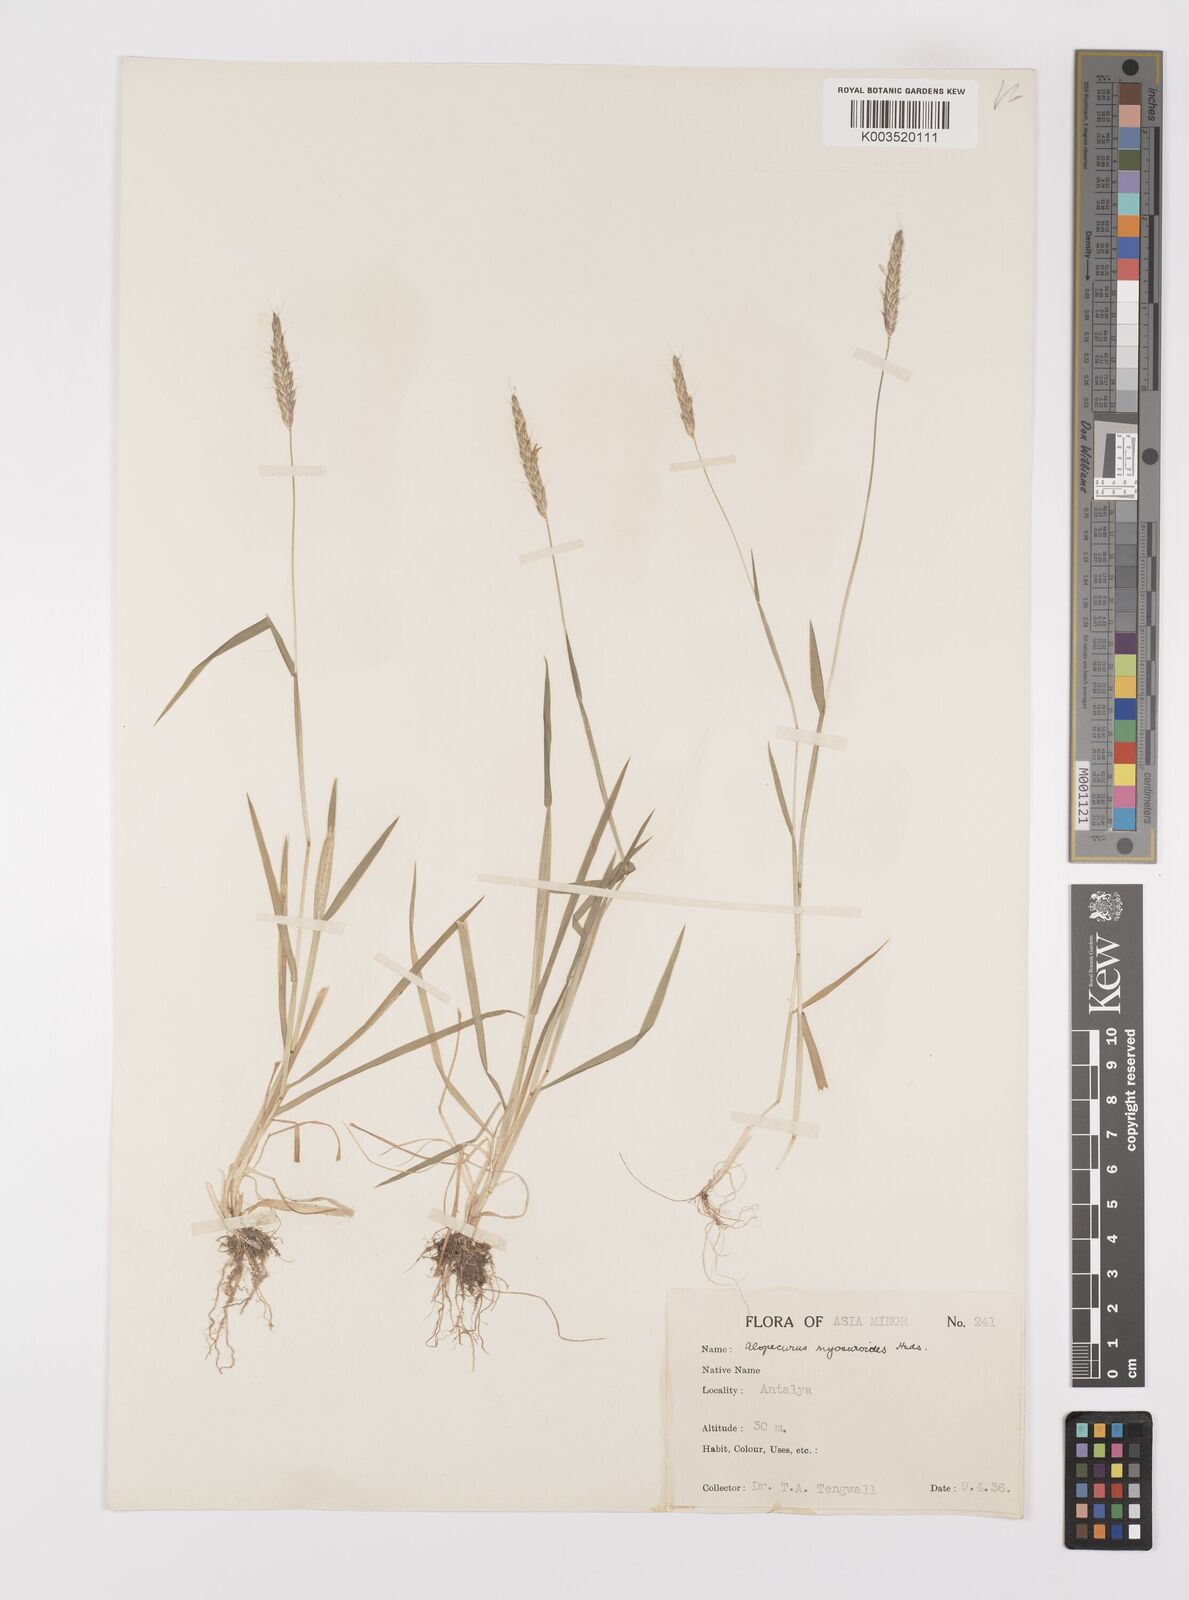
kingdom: Plantae
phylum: Tracheophyta
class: Liliopsida
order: Poales
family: Poaceae
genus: Alopecurus
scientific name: Alopecurus myosuroides
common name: Black-grass
